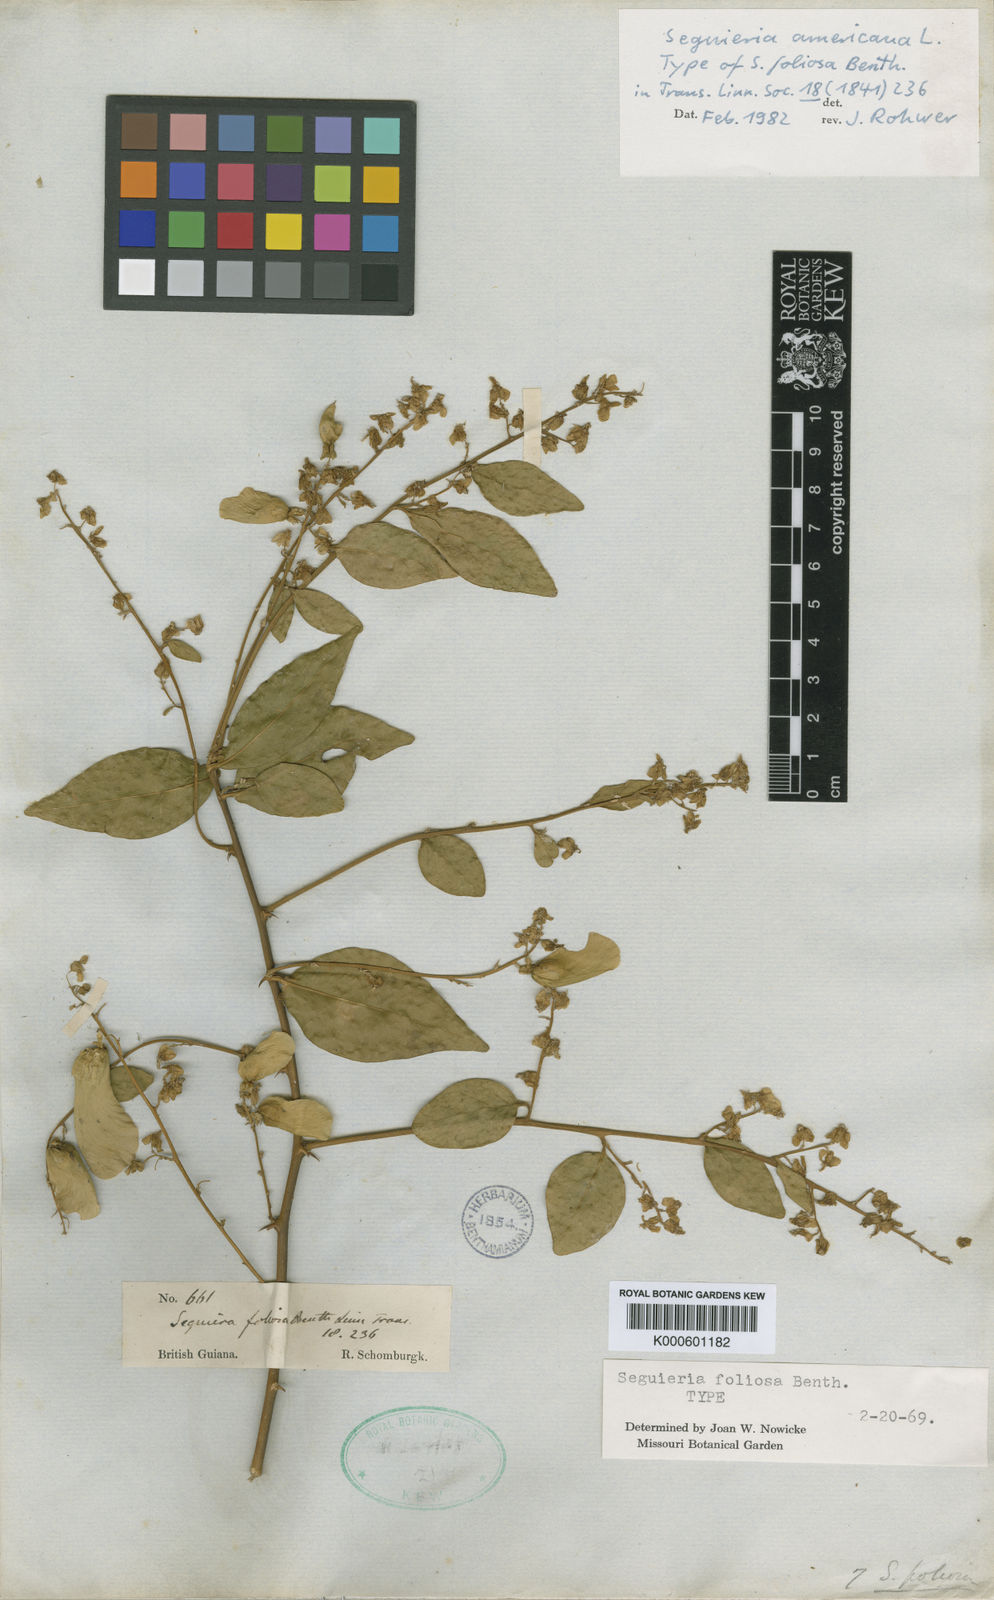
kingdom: Plantae
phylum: Tracheophyta
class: Magnoliopsida
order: Caryophyllales
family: Phytolaccaceae
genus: Seguieria
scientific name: Seguieria americana
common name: American seguieria
